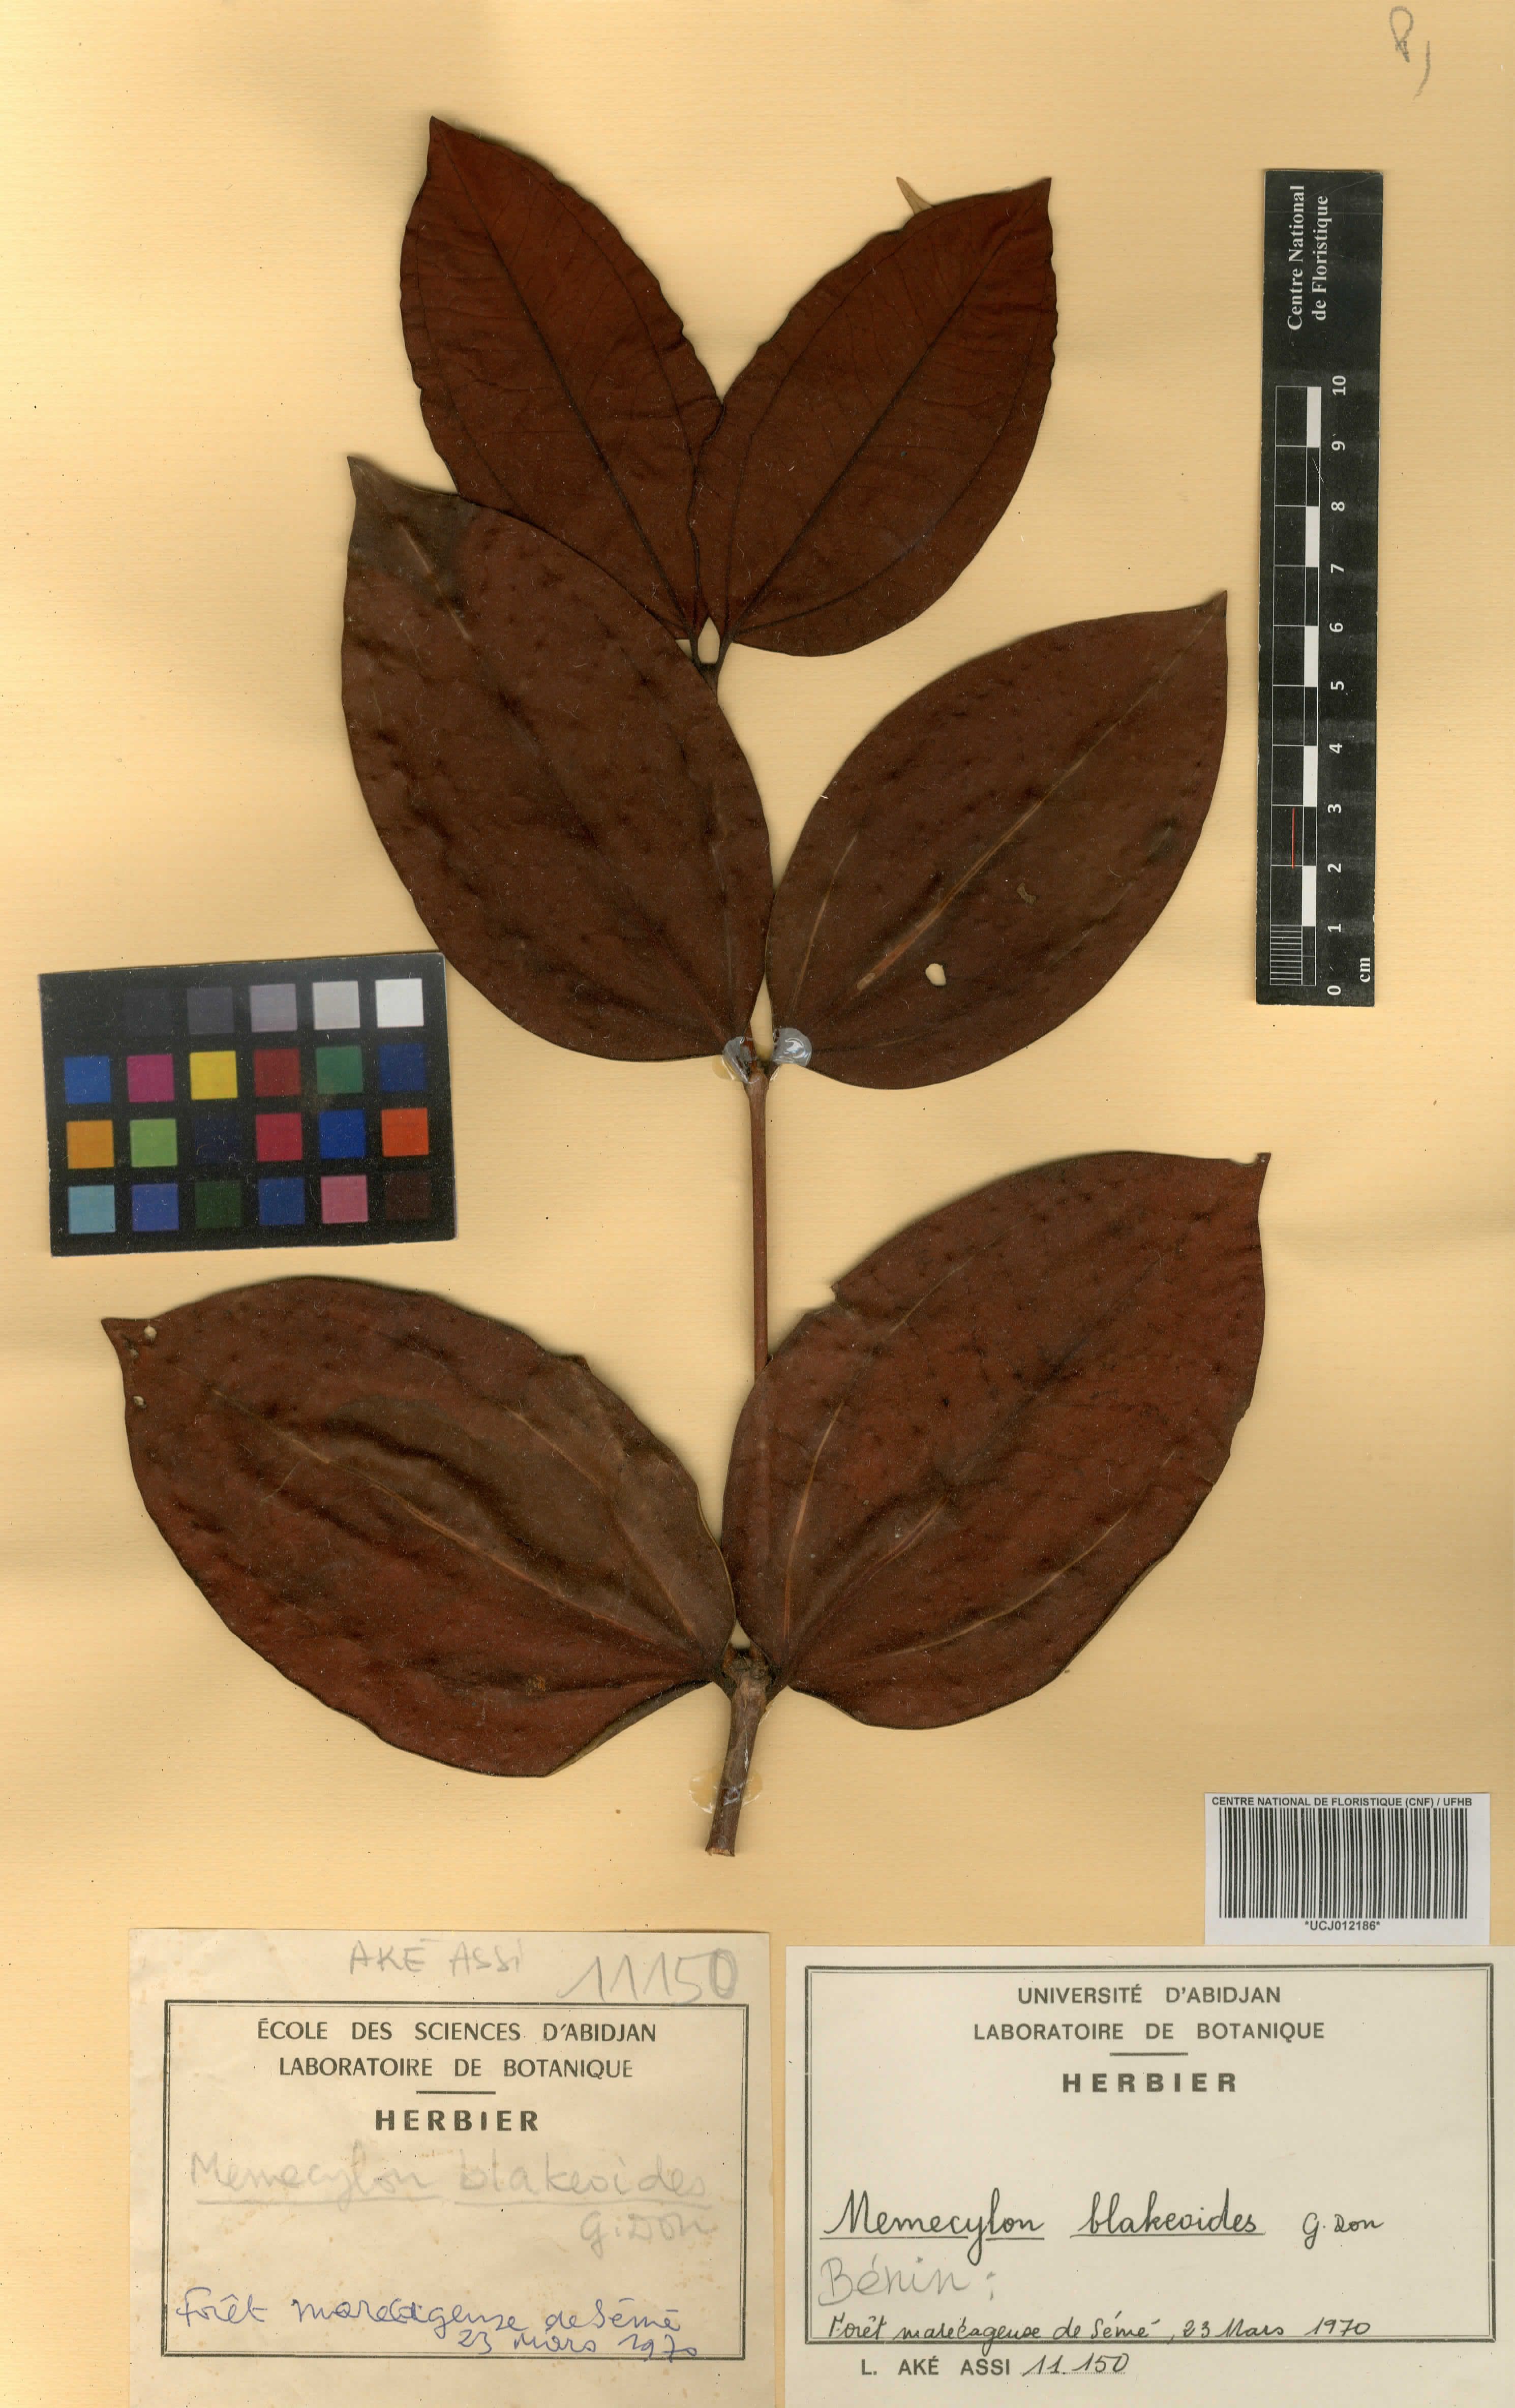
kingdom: Plantae
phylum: Tracheophyta
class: Magnoliopsida
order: Myrtales
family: Melastomataceae
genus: Spathandra
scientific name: Spathandra blakeoides
